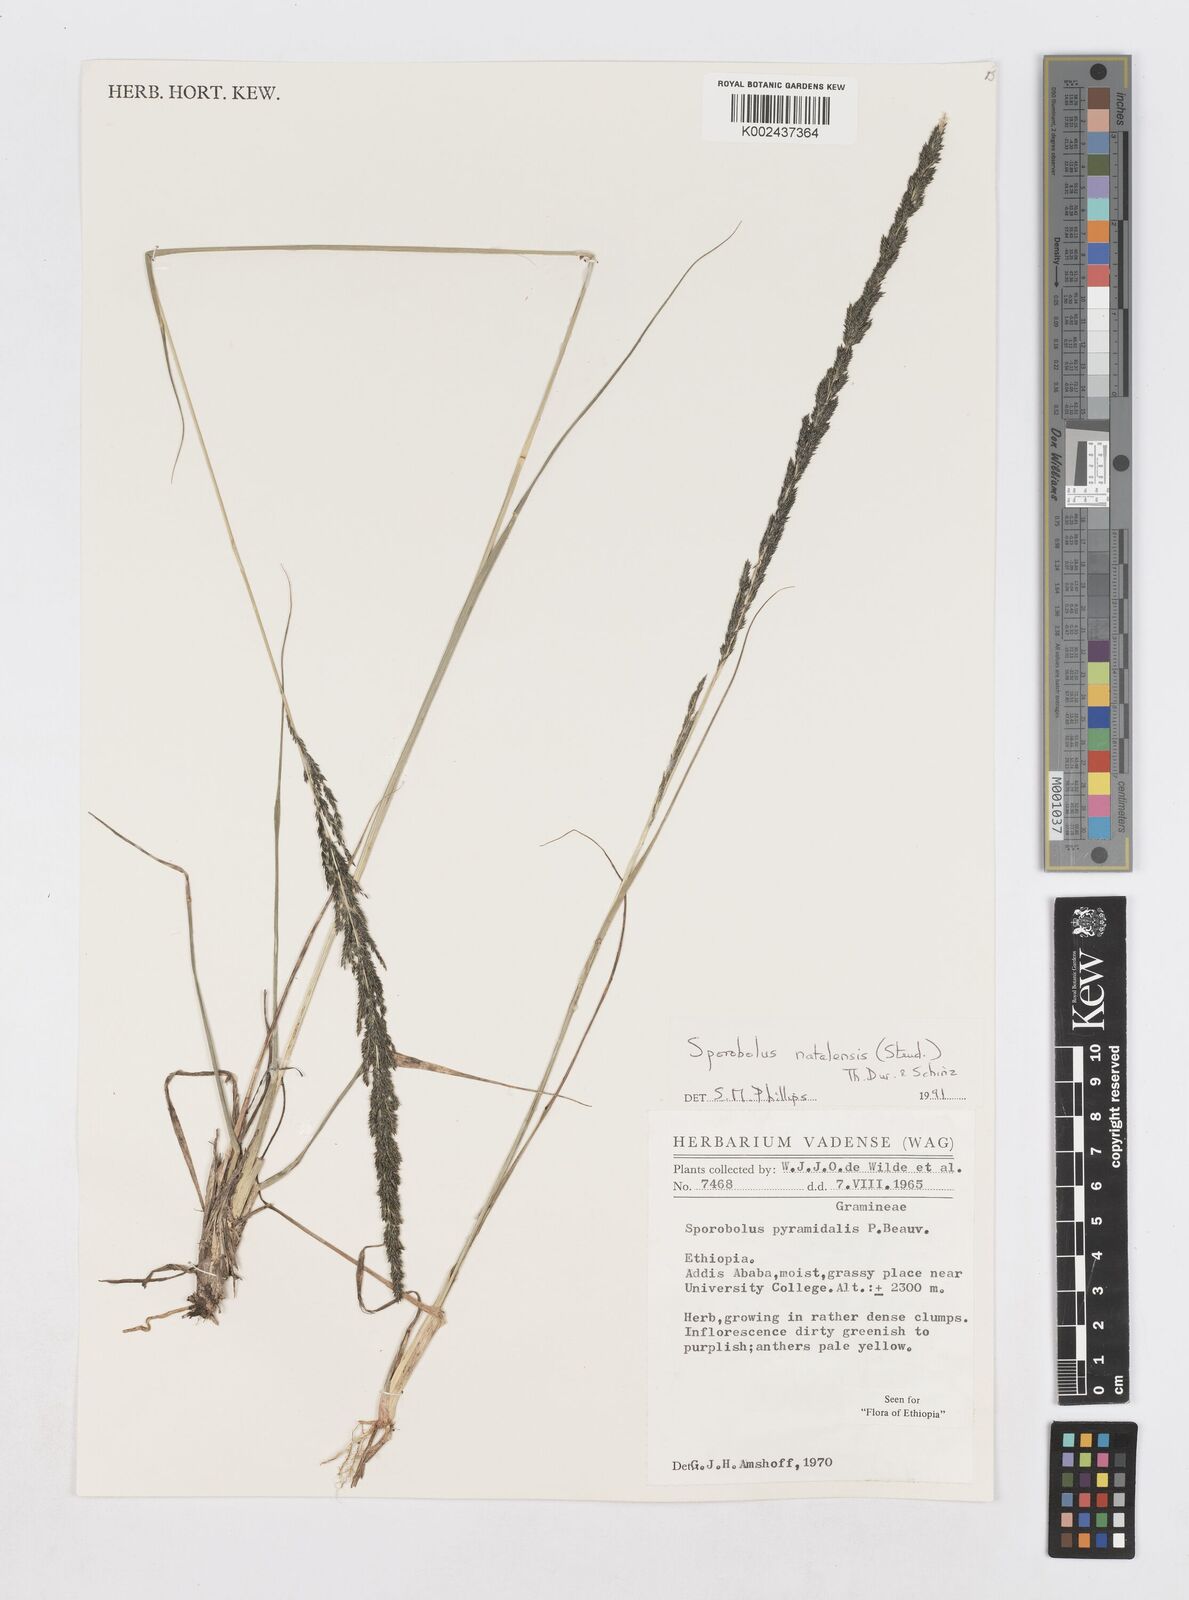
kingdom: Plantae
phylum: Tracheophyta
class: Liliopsida
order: Poales
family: Poaceae
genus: Sporobolus
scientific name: Sporobolus natalensis
